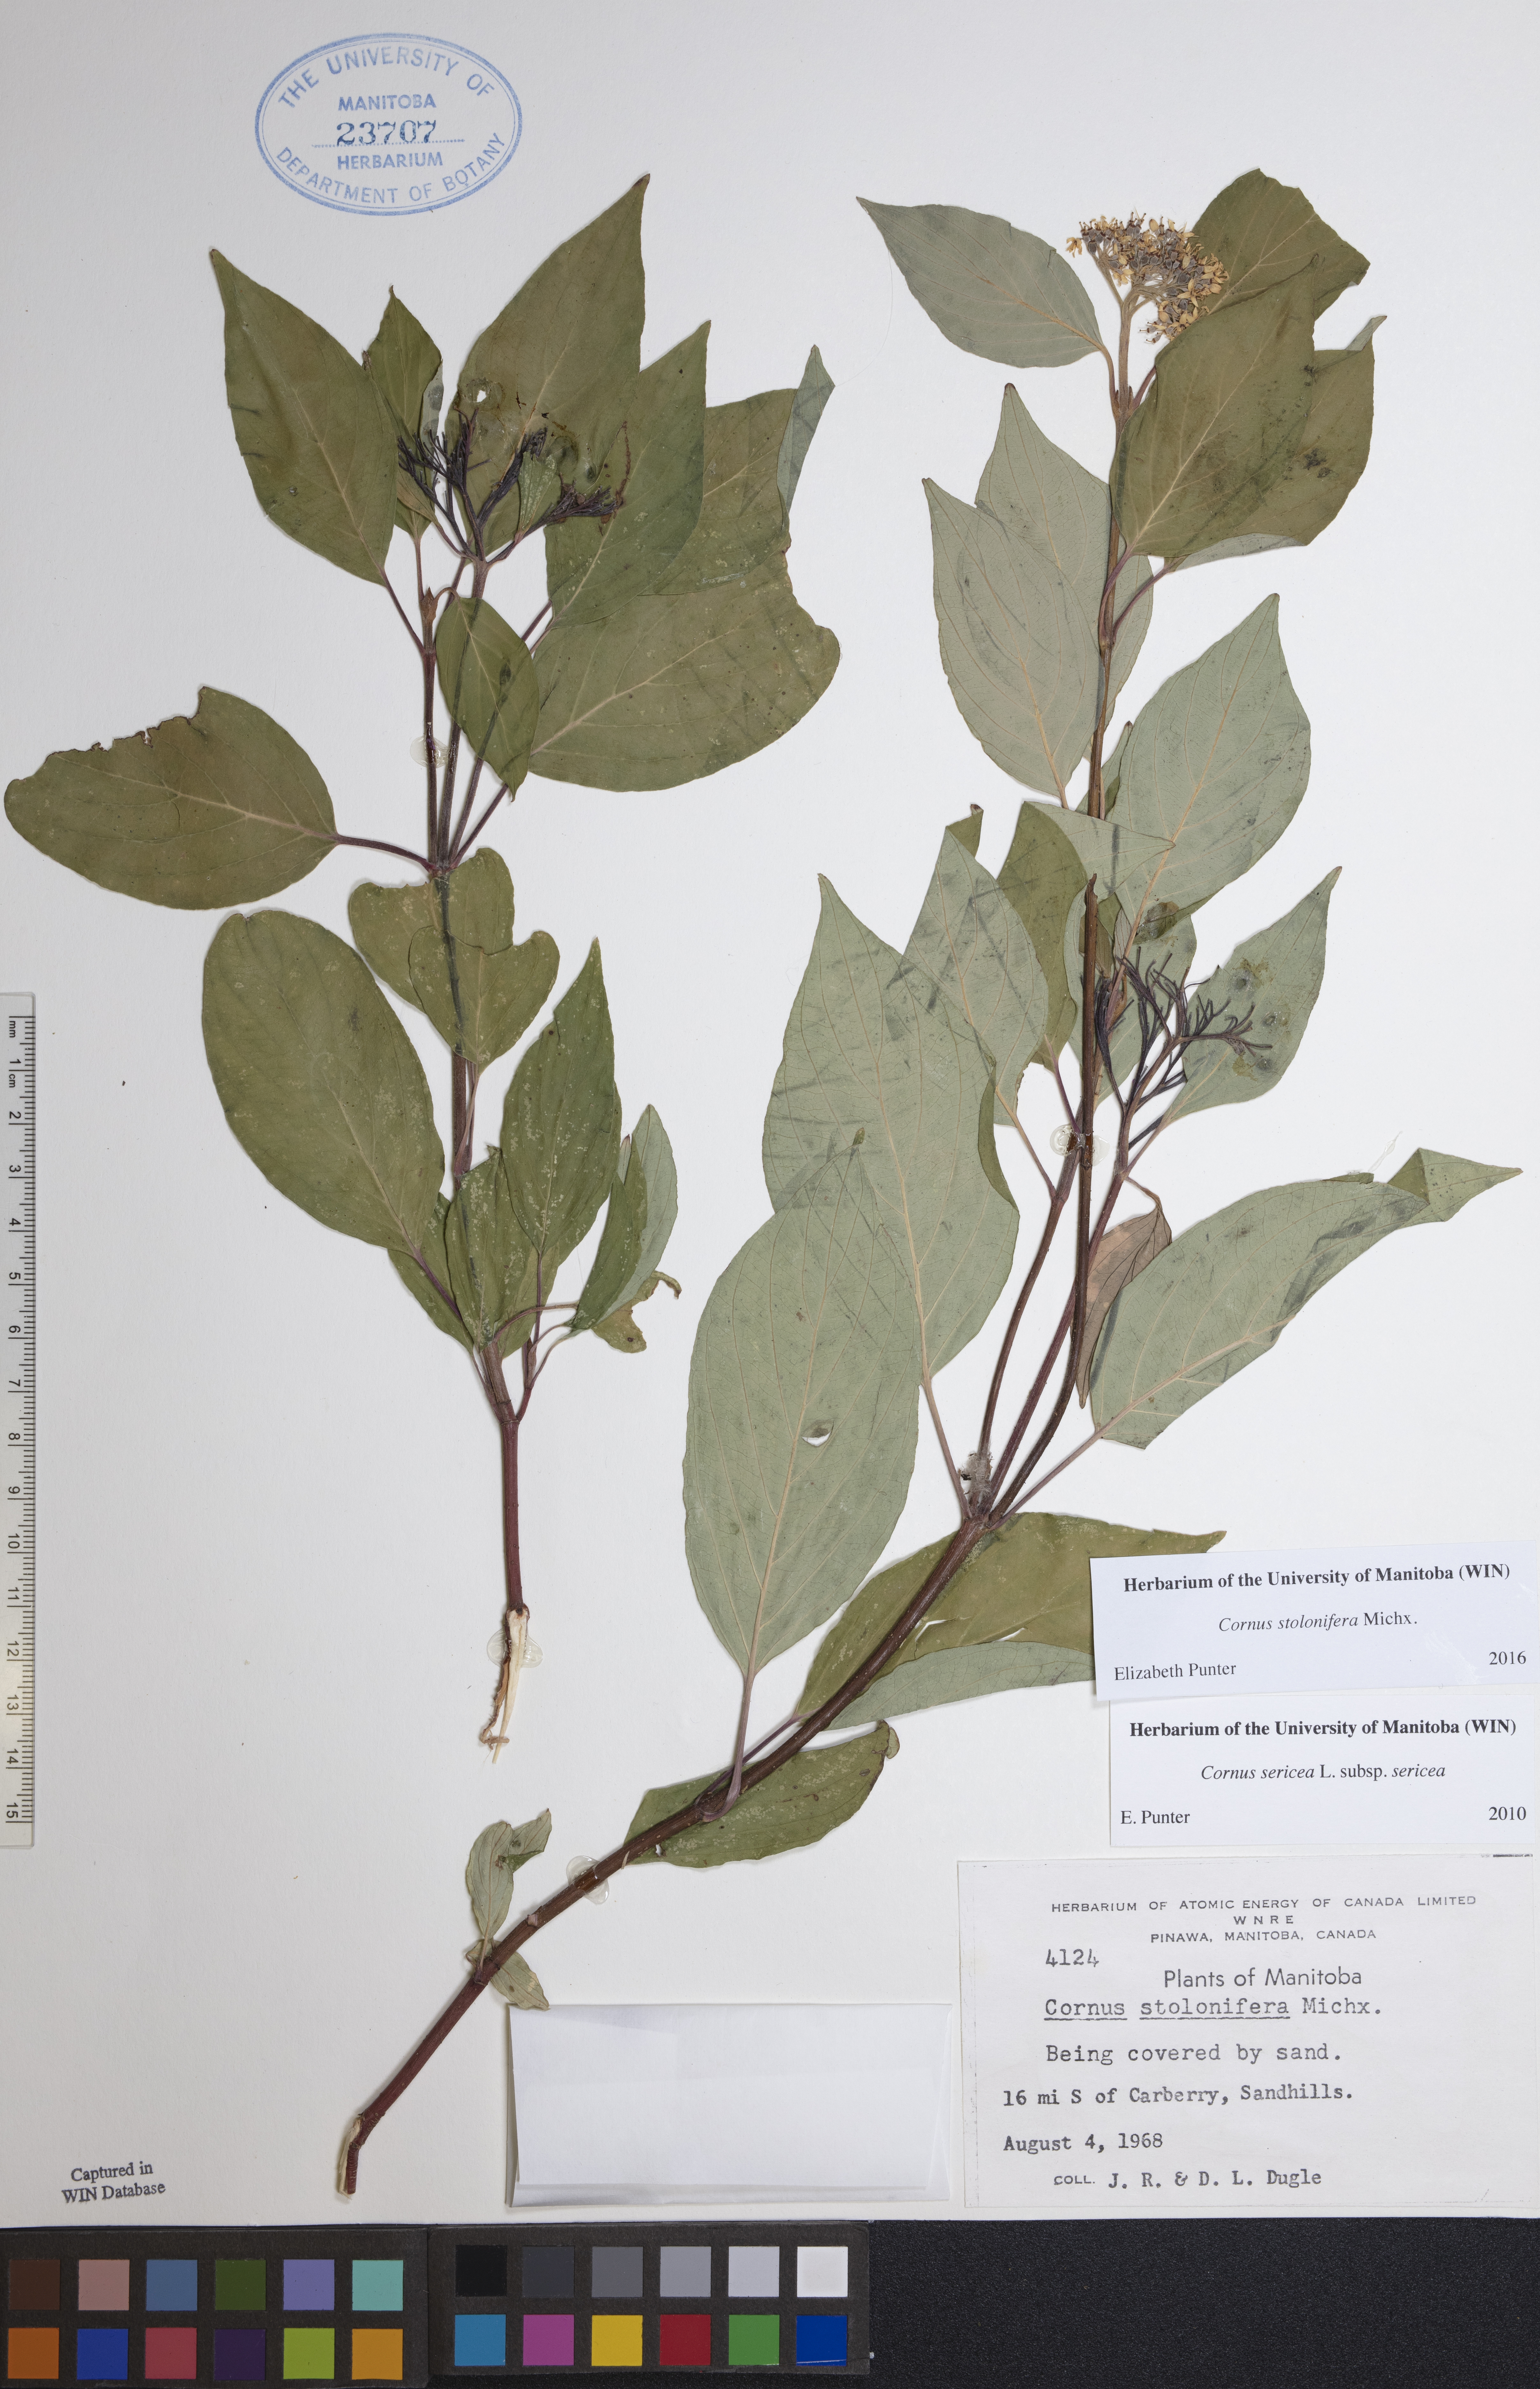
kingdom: Plantae
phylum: Tracheophyta
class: Magnoliopsida
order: Cornales
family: Cornaceae
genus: Cornus
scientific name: Cornus sericea
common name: Red-osier dogwood
